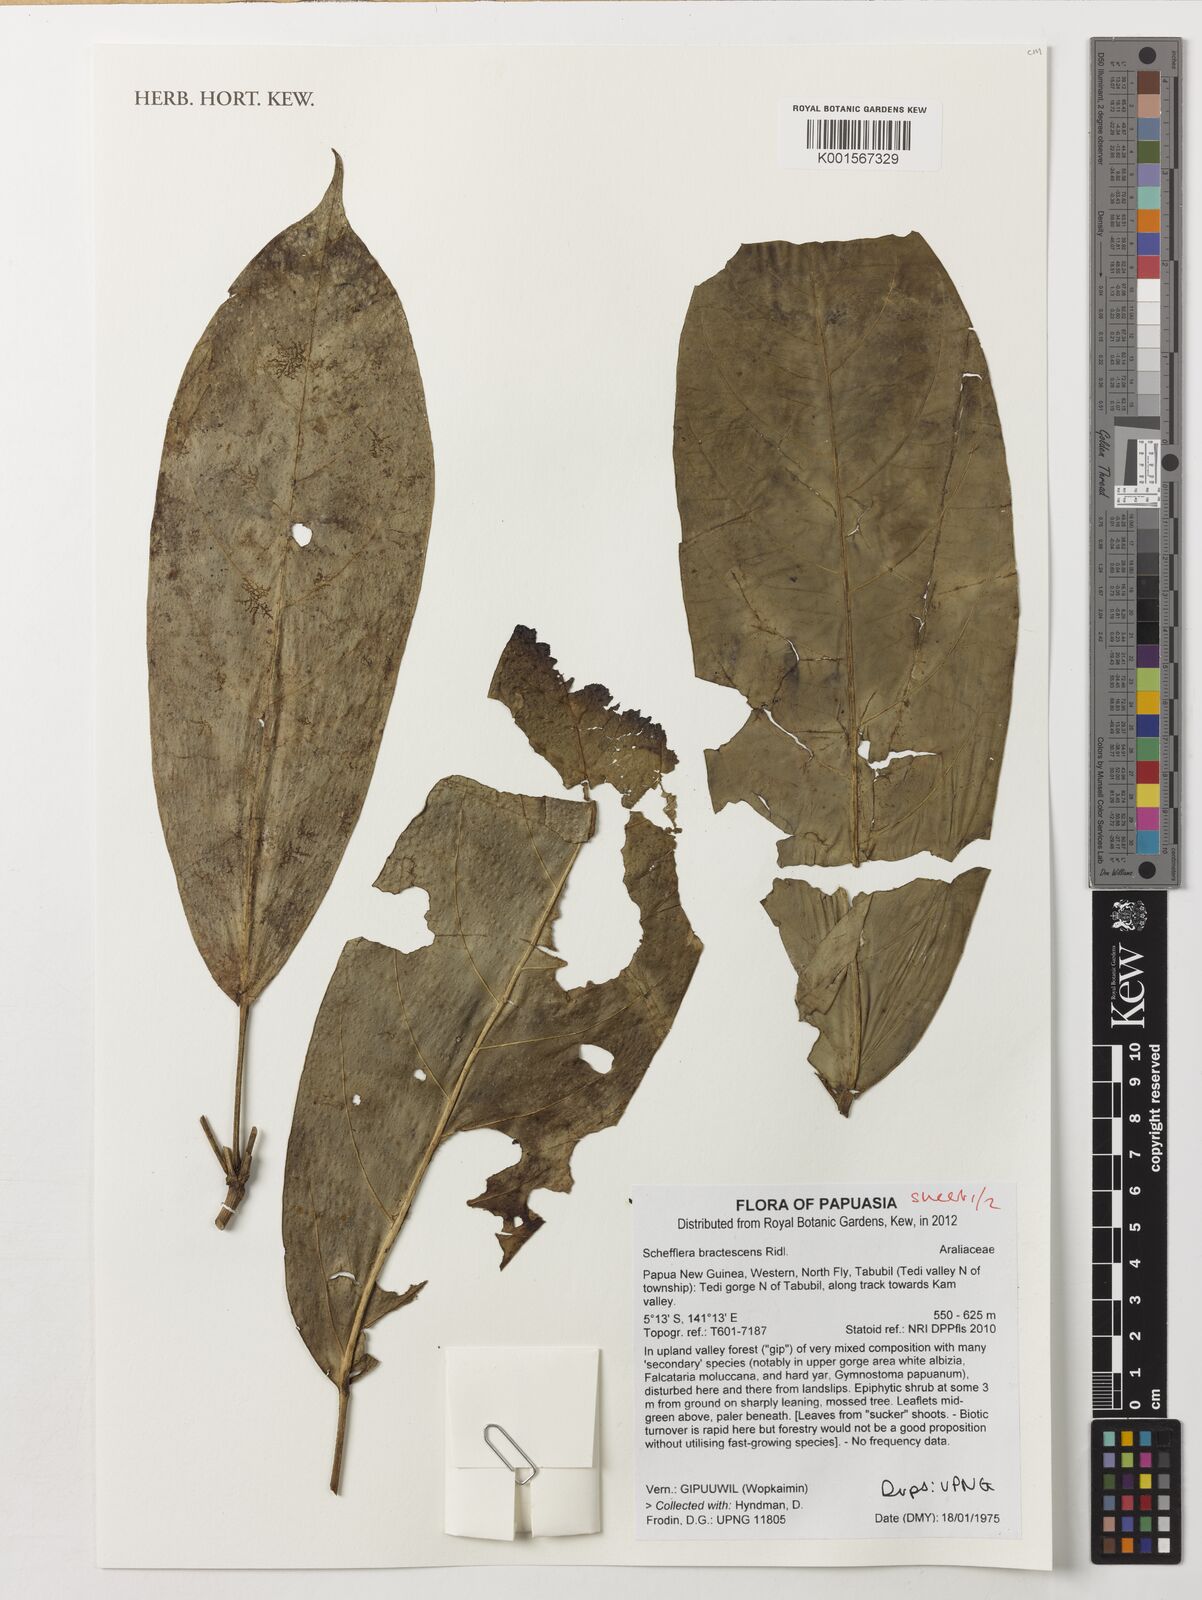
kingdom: Plantae
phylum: Tracheophyta
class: Magnoliopsida
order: Apiales
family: Araliaceae
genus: Heptapleurum
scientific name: Heptapleurum bractescens
